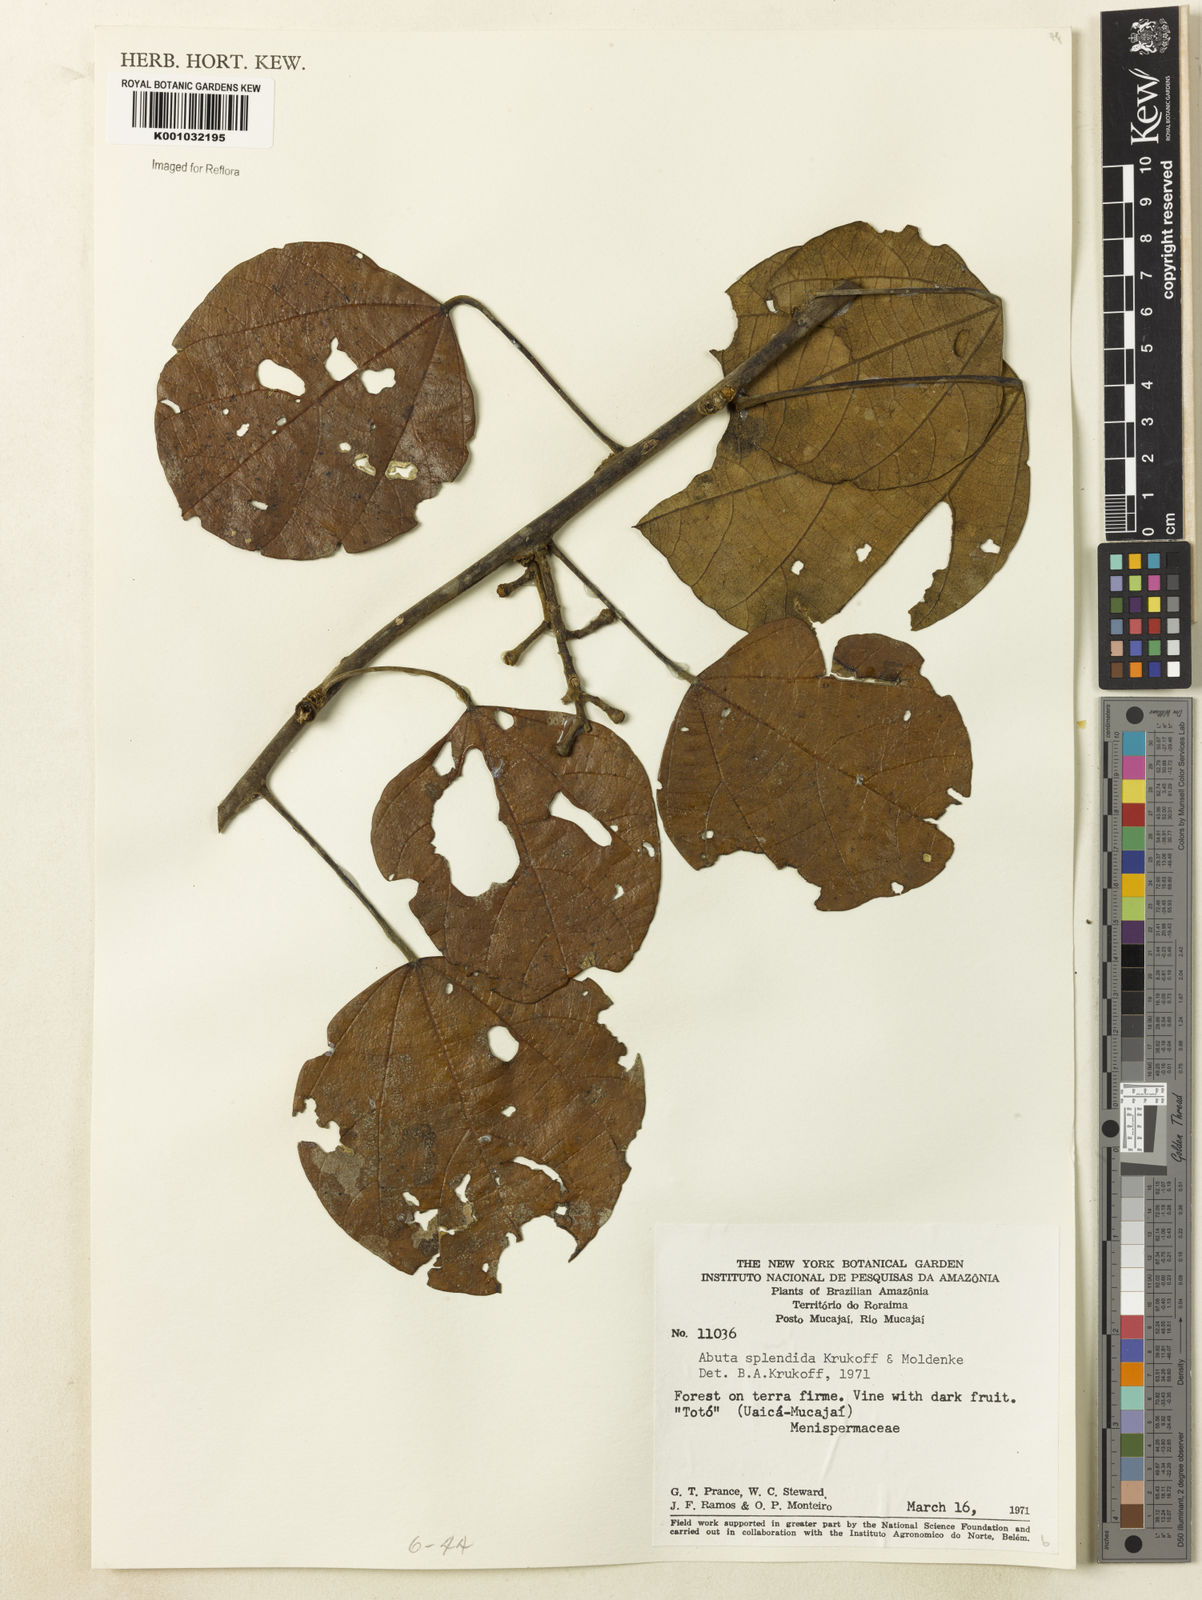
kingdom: Plantae
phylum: Tracheophyta
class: Magnoliopsida
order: Ranunculales
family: Menispermaceae
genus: Abuta
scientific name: Abuta
